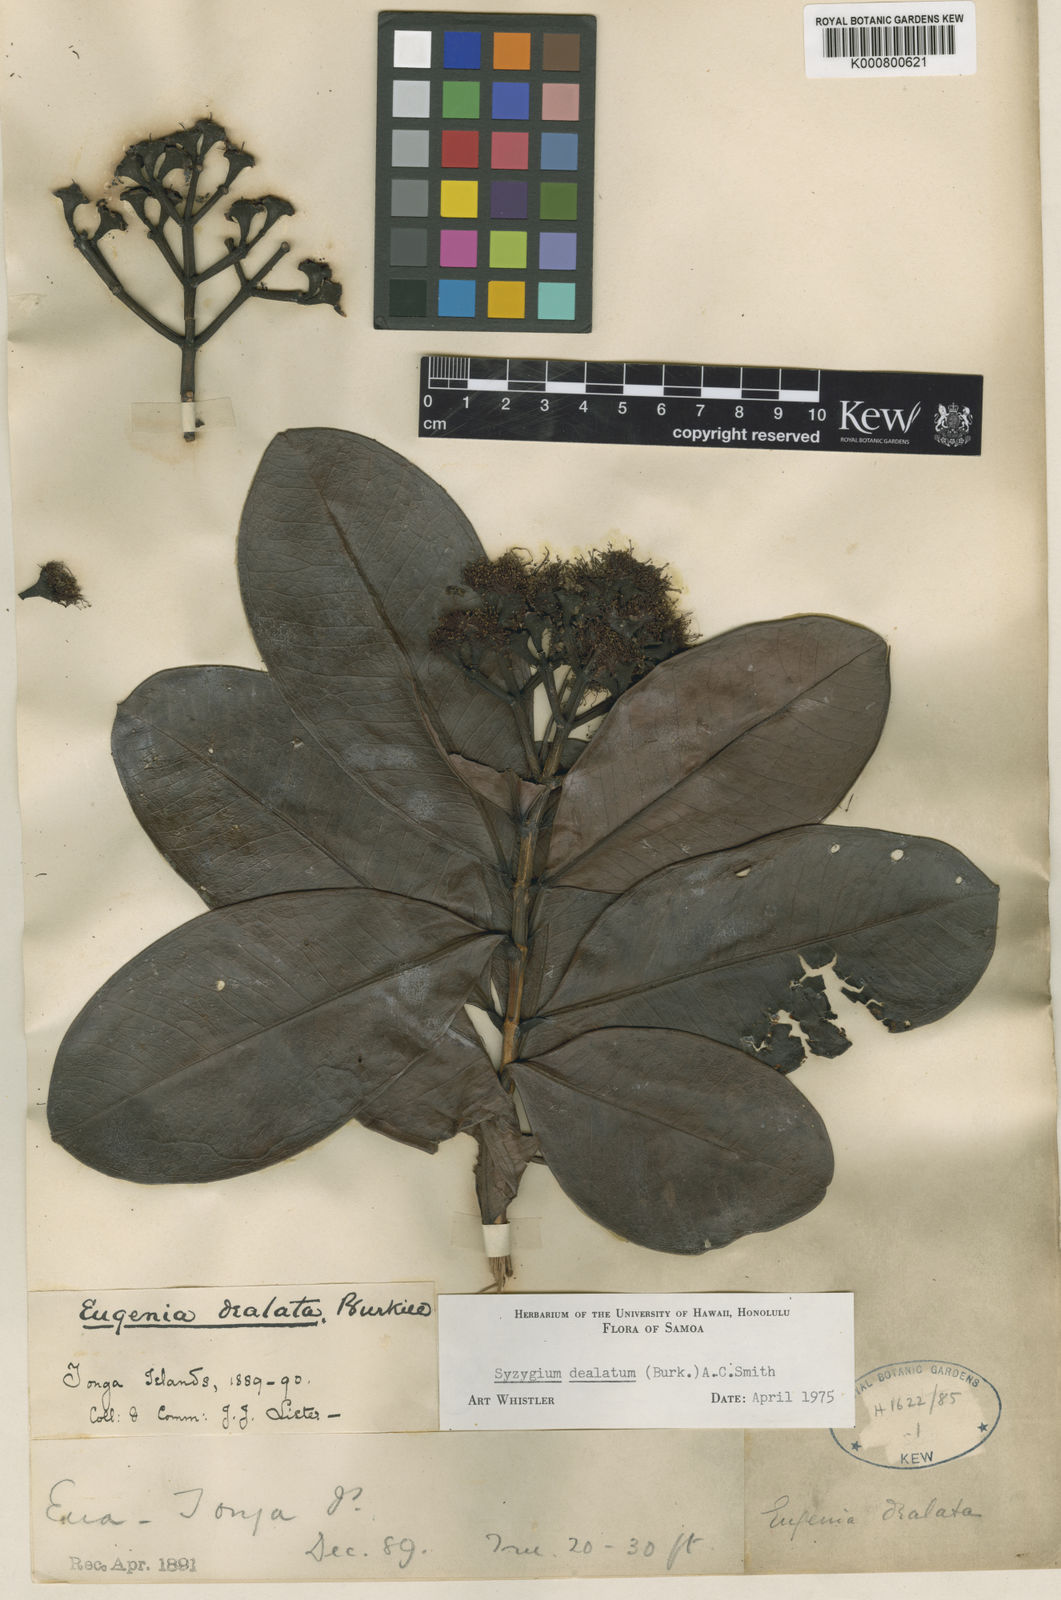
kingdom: Plantae
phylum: Tracheophyta
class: Magnoliopsida
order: Myrtales
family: Myrtaceae
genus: Syzygium
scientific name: Syzygium
